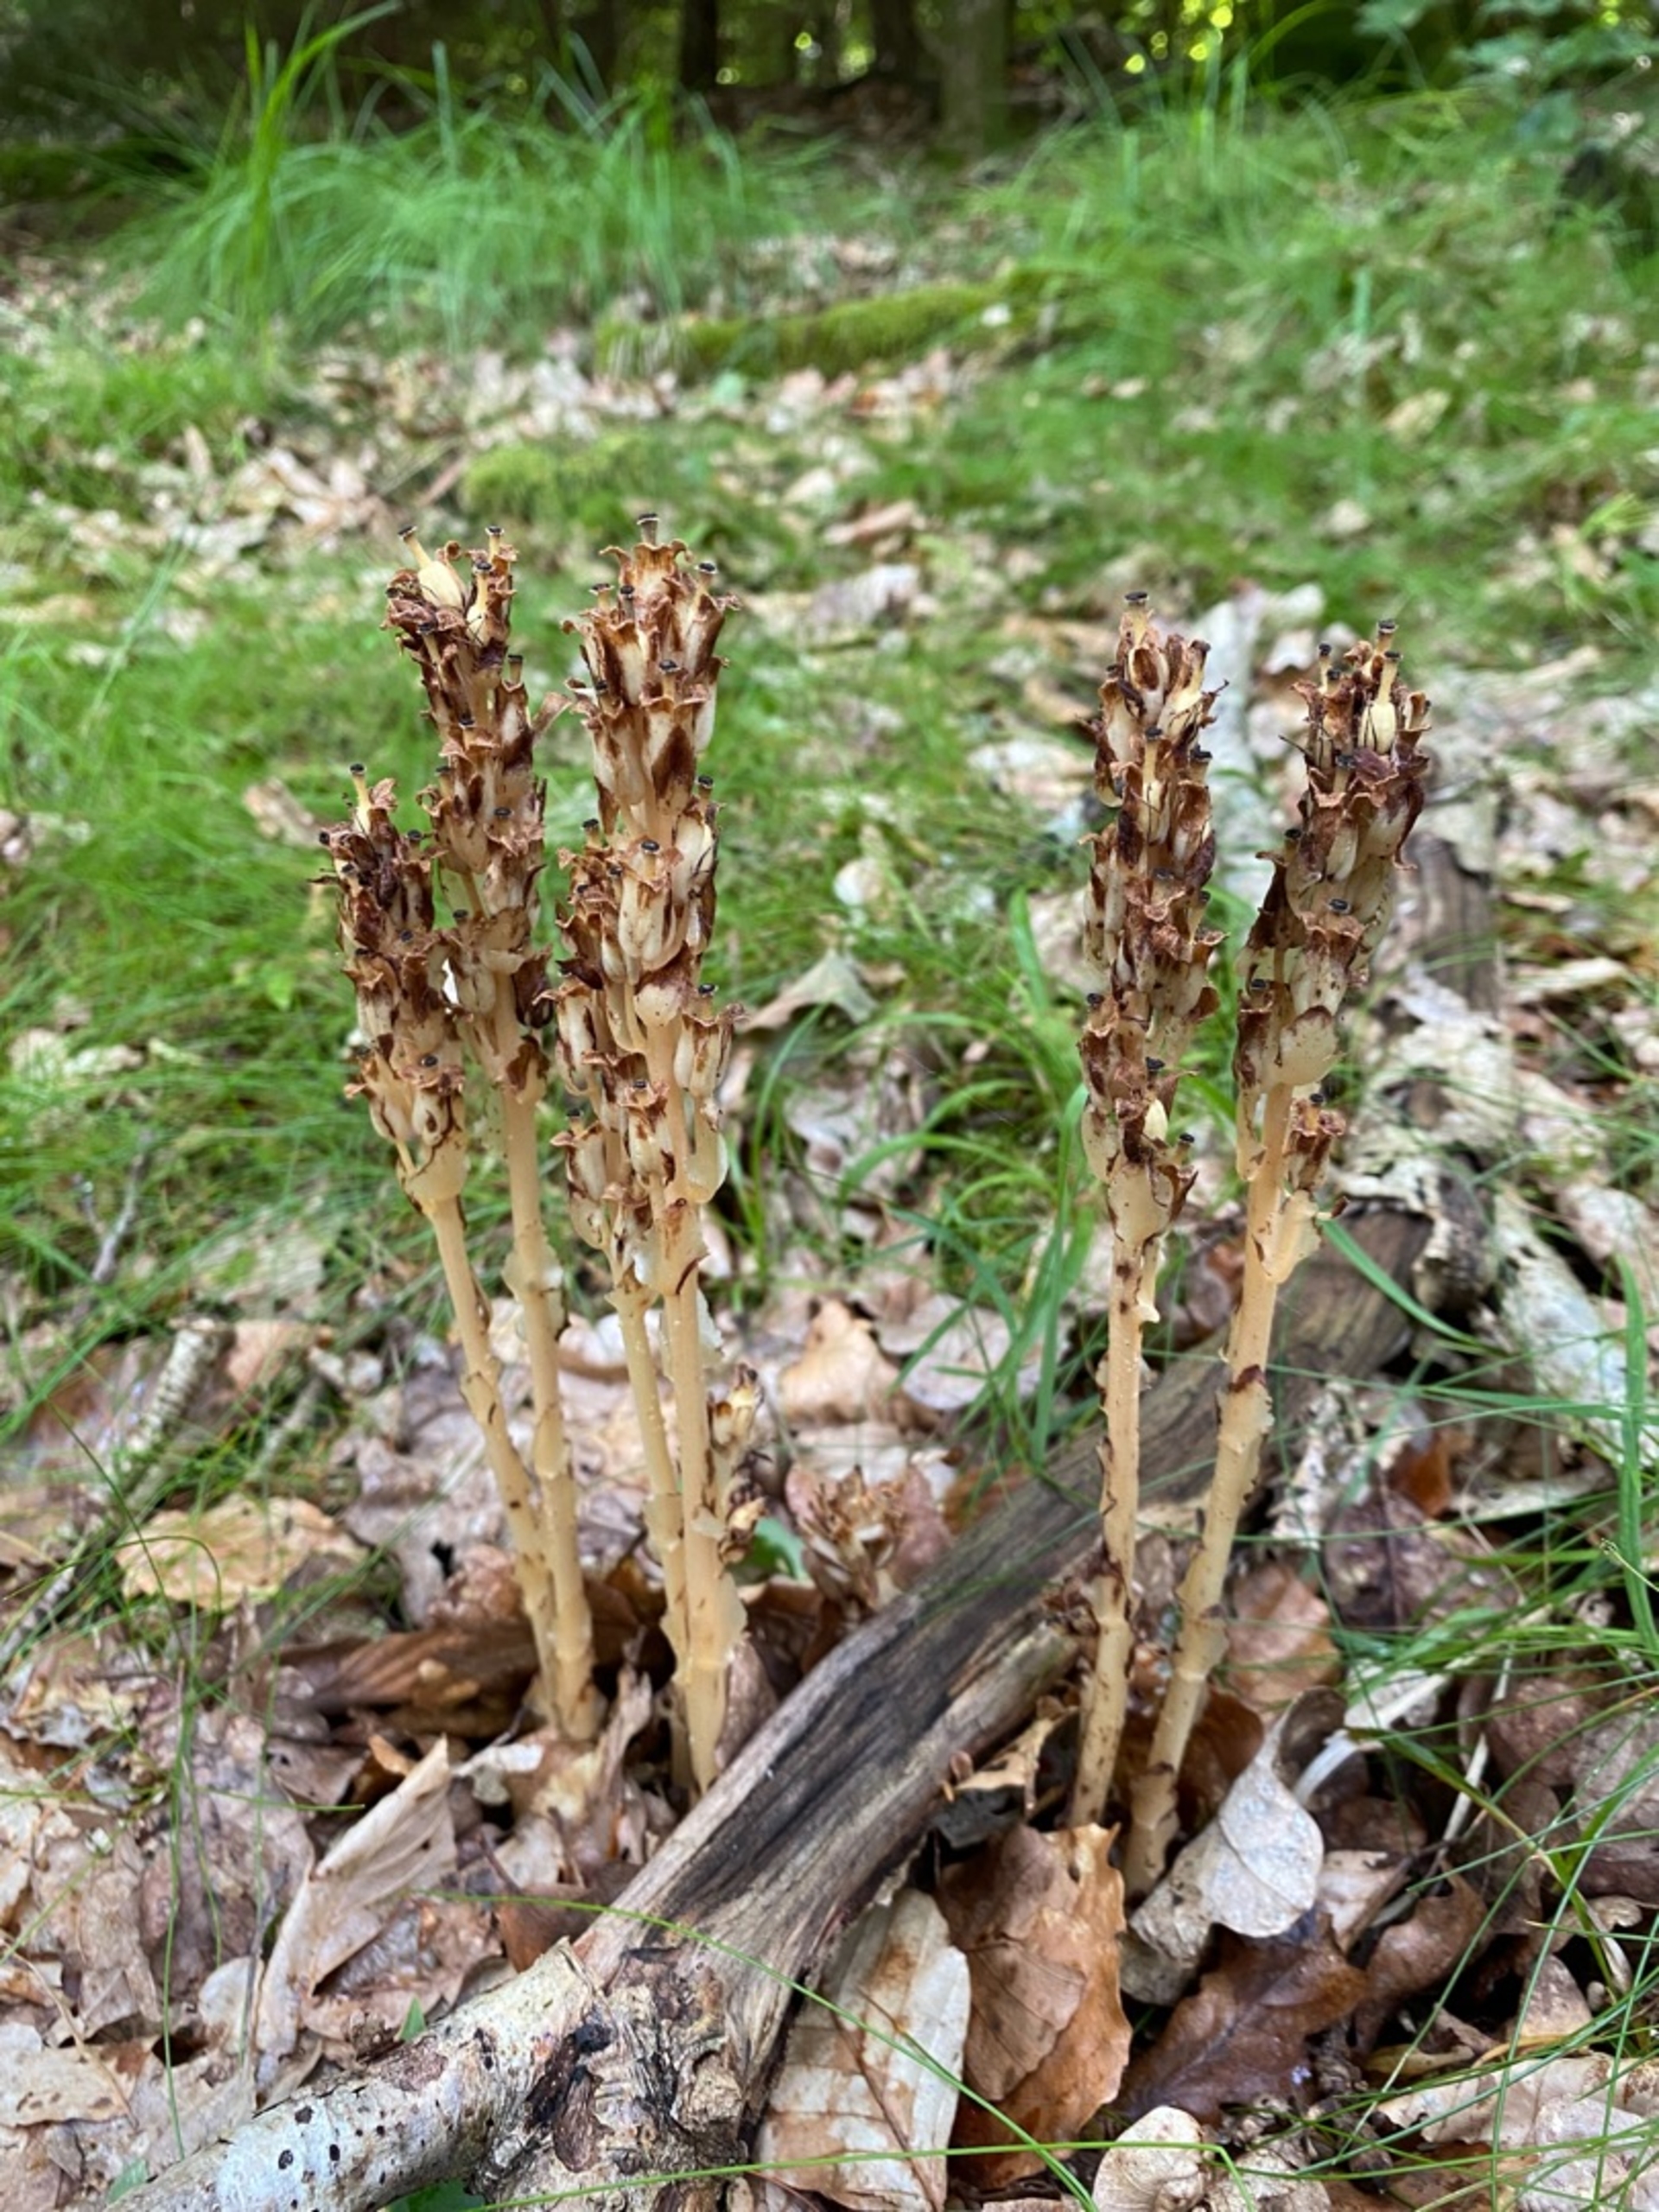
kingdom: Plantae
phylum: Tracheophyta
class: Magnoliopsida
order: Ericales
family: Ericaceae
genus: Hypopitys
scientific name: Hypopitys monotropa
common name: Snylterod
